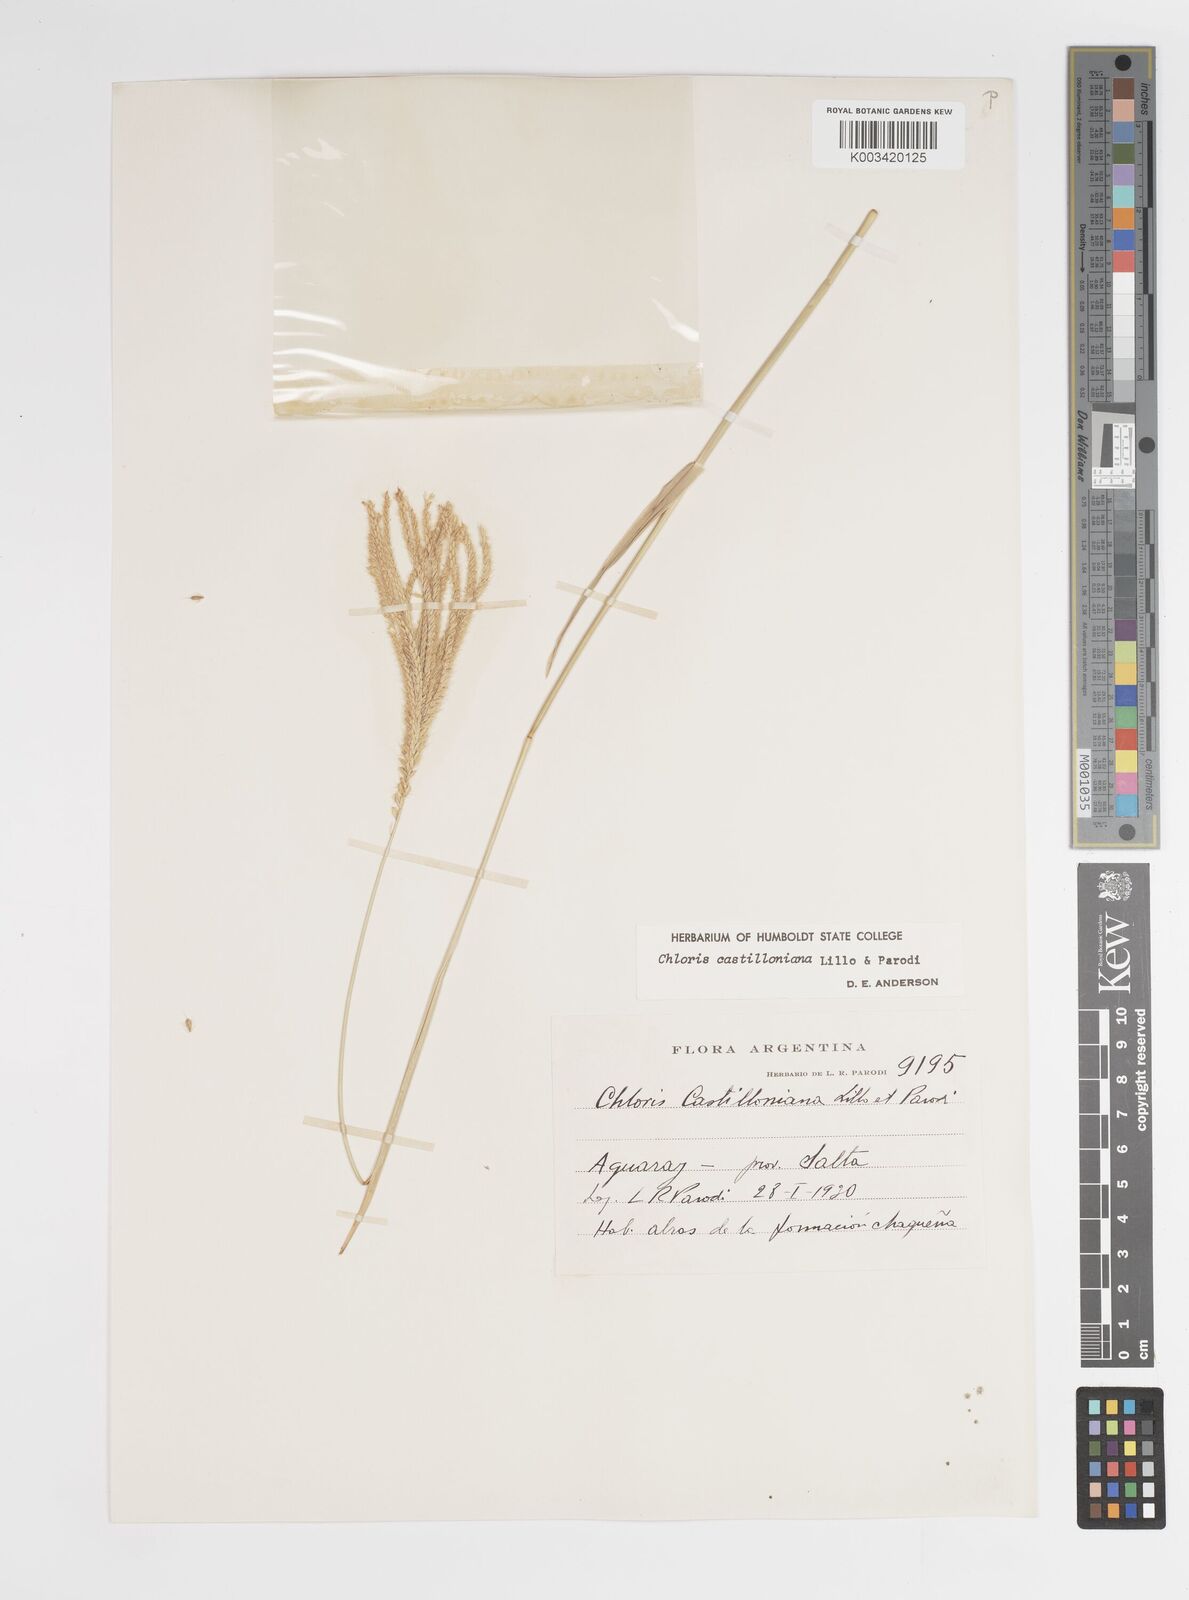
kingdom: Plantae
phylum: Tracheophyta
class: Liliopsida
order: Poales
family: Poaceae
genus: Chloris
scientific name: Chloris castilloniana
